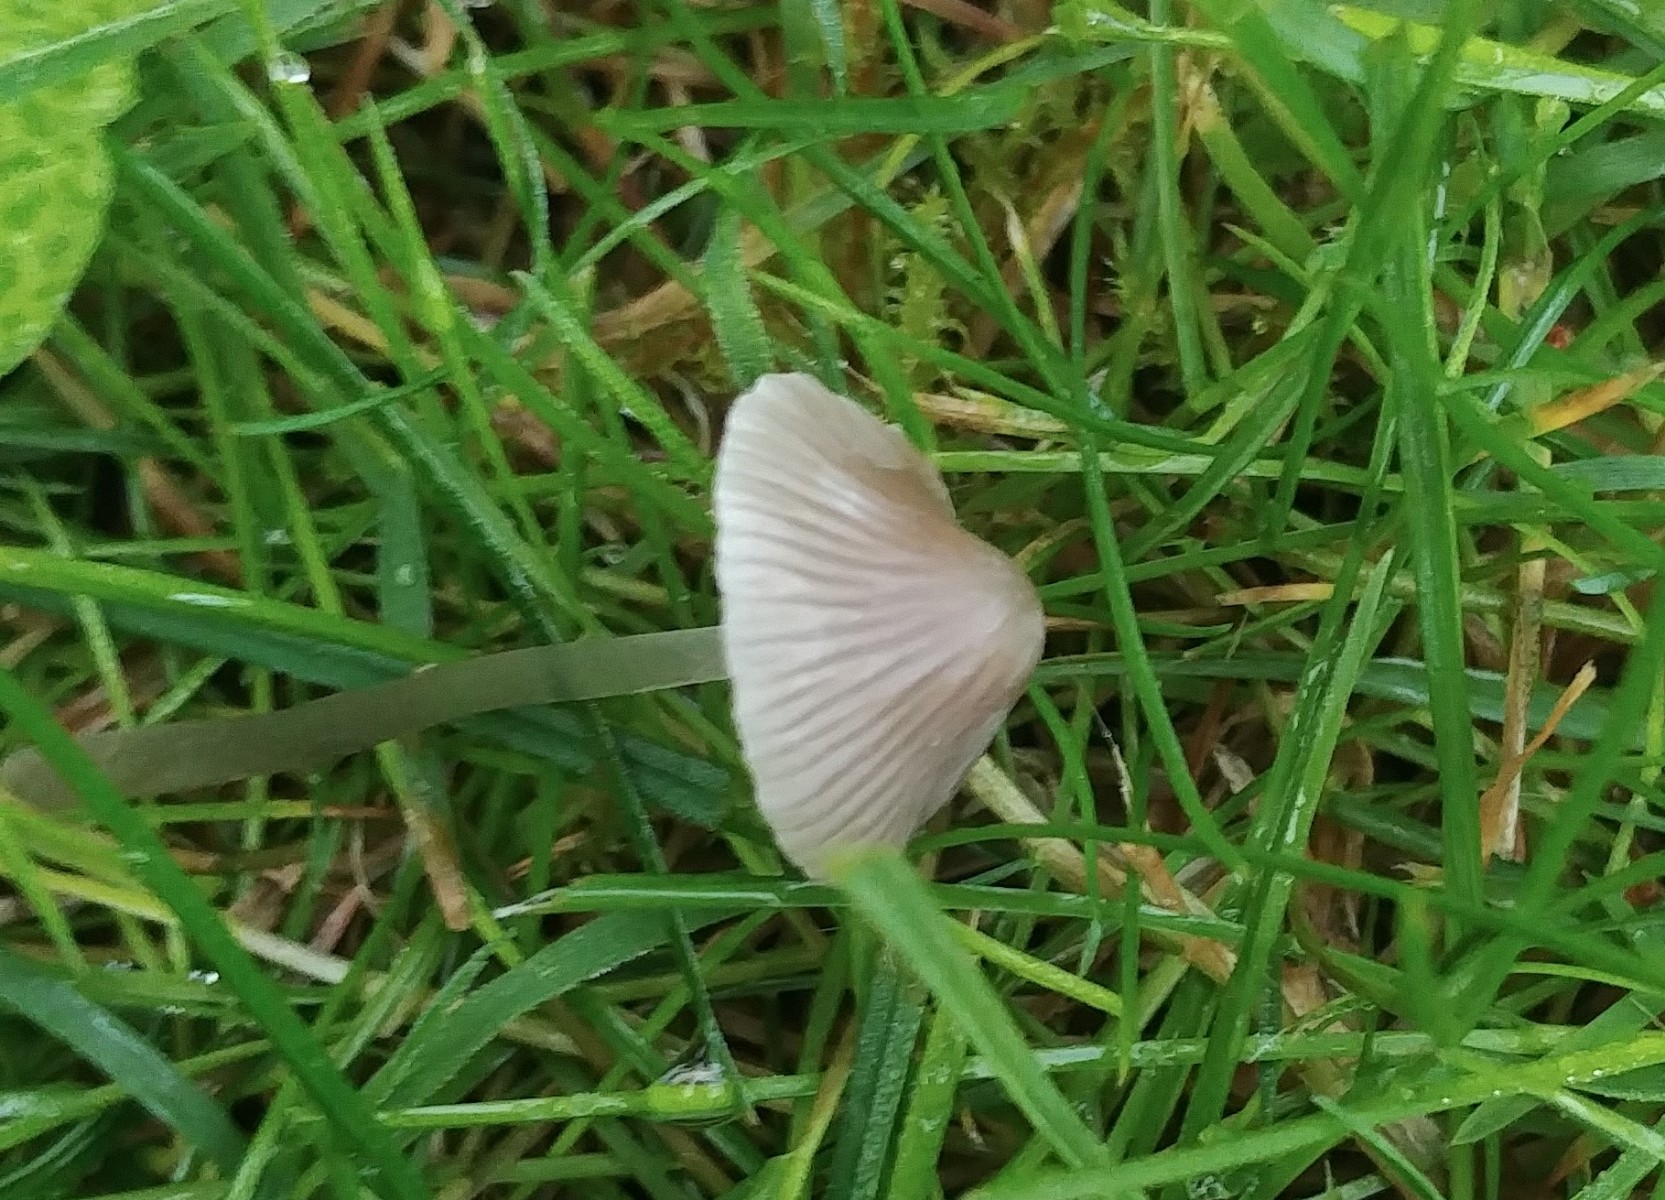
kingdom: Fungi
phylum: Basidiomycota
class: Agaricomycetes
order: Agaricales
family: Mycenaceae
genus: Mycena
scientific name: Mycena aetites
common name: plæne-huesvamp
